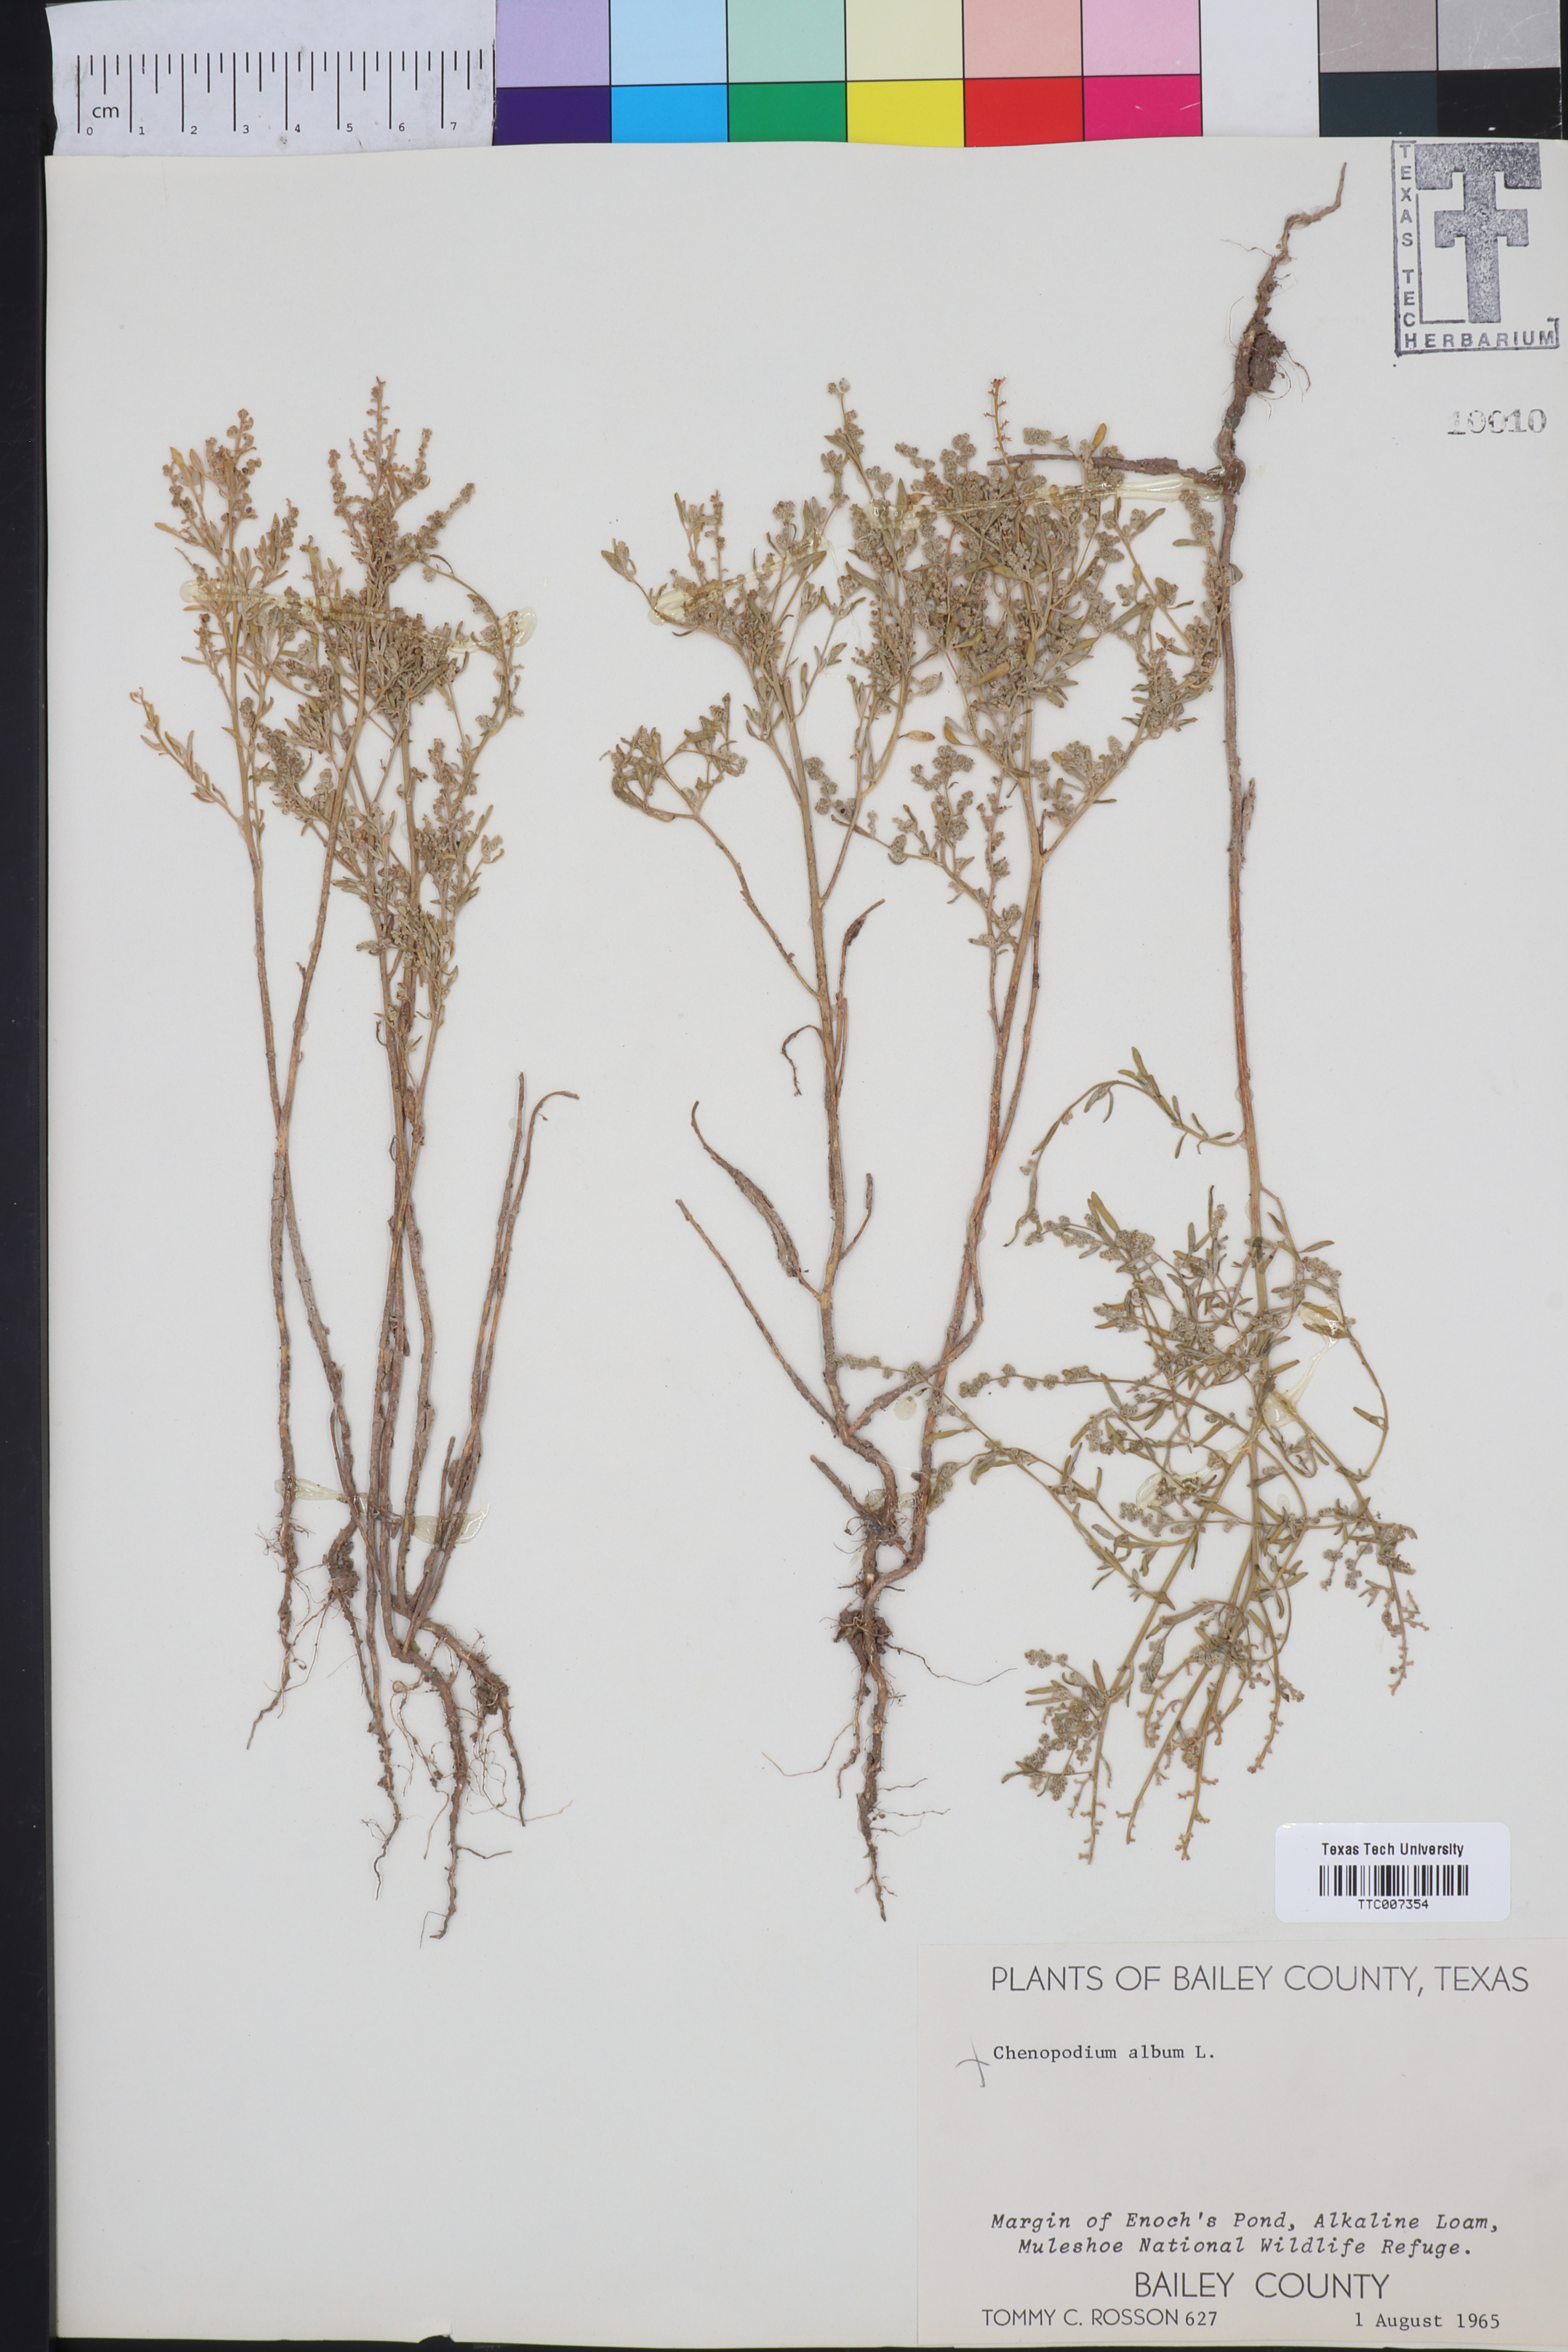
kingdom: Plantae
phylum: Tracheophyta
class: Magnoliopsida
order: Caryophyllales
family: Amaranthaceae
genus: Chenopodium
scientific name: Chenopodium album
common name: Fat-hen
